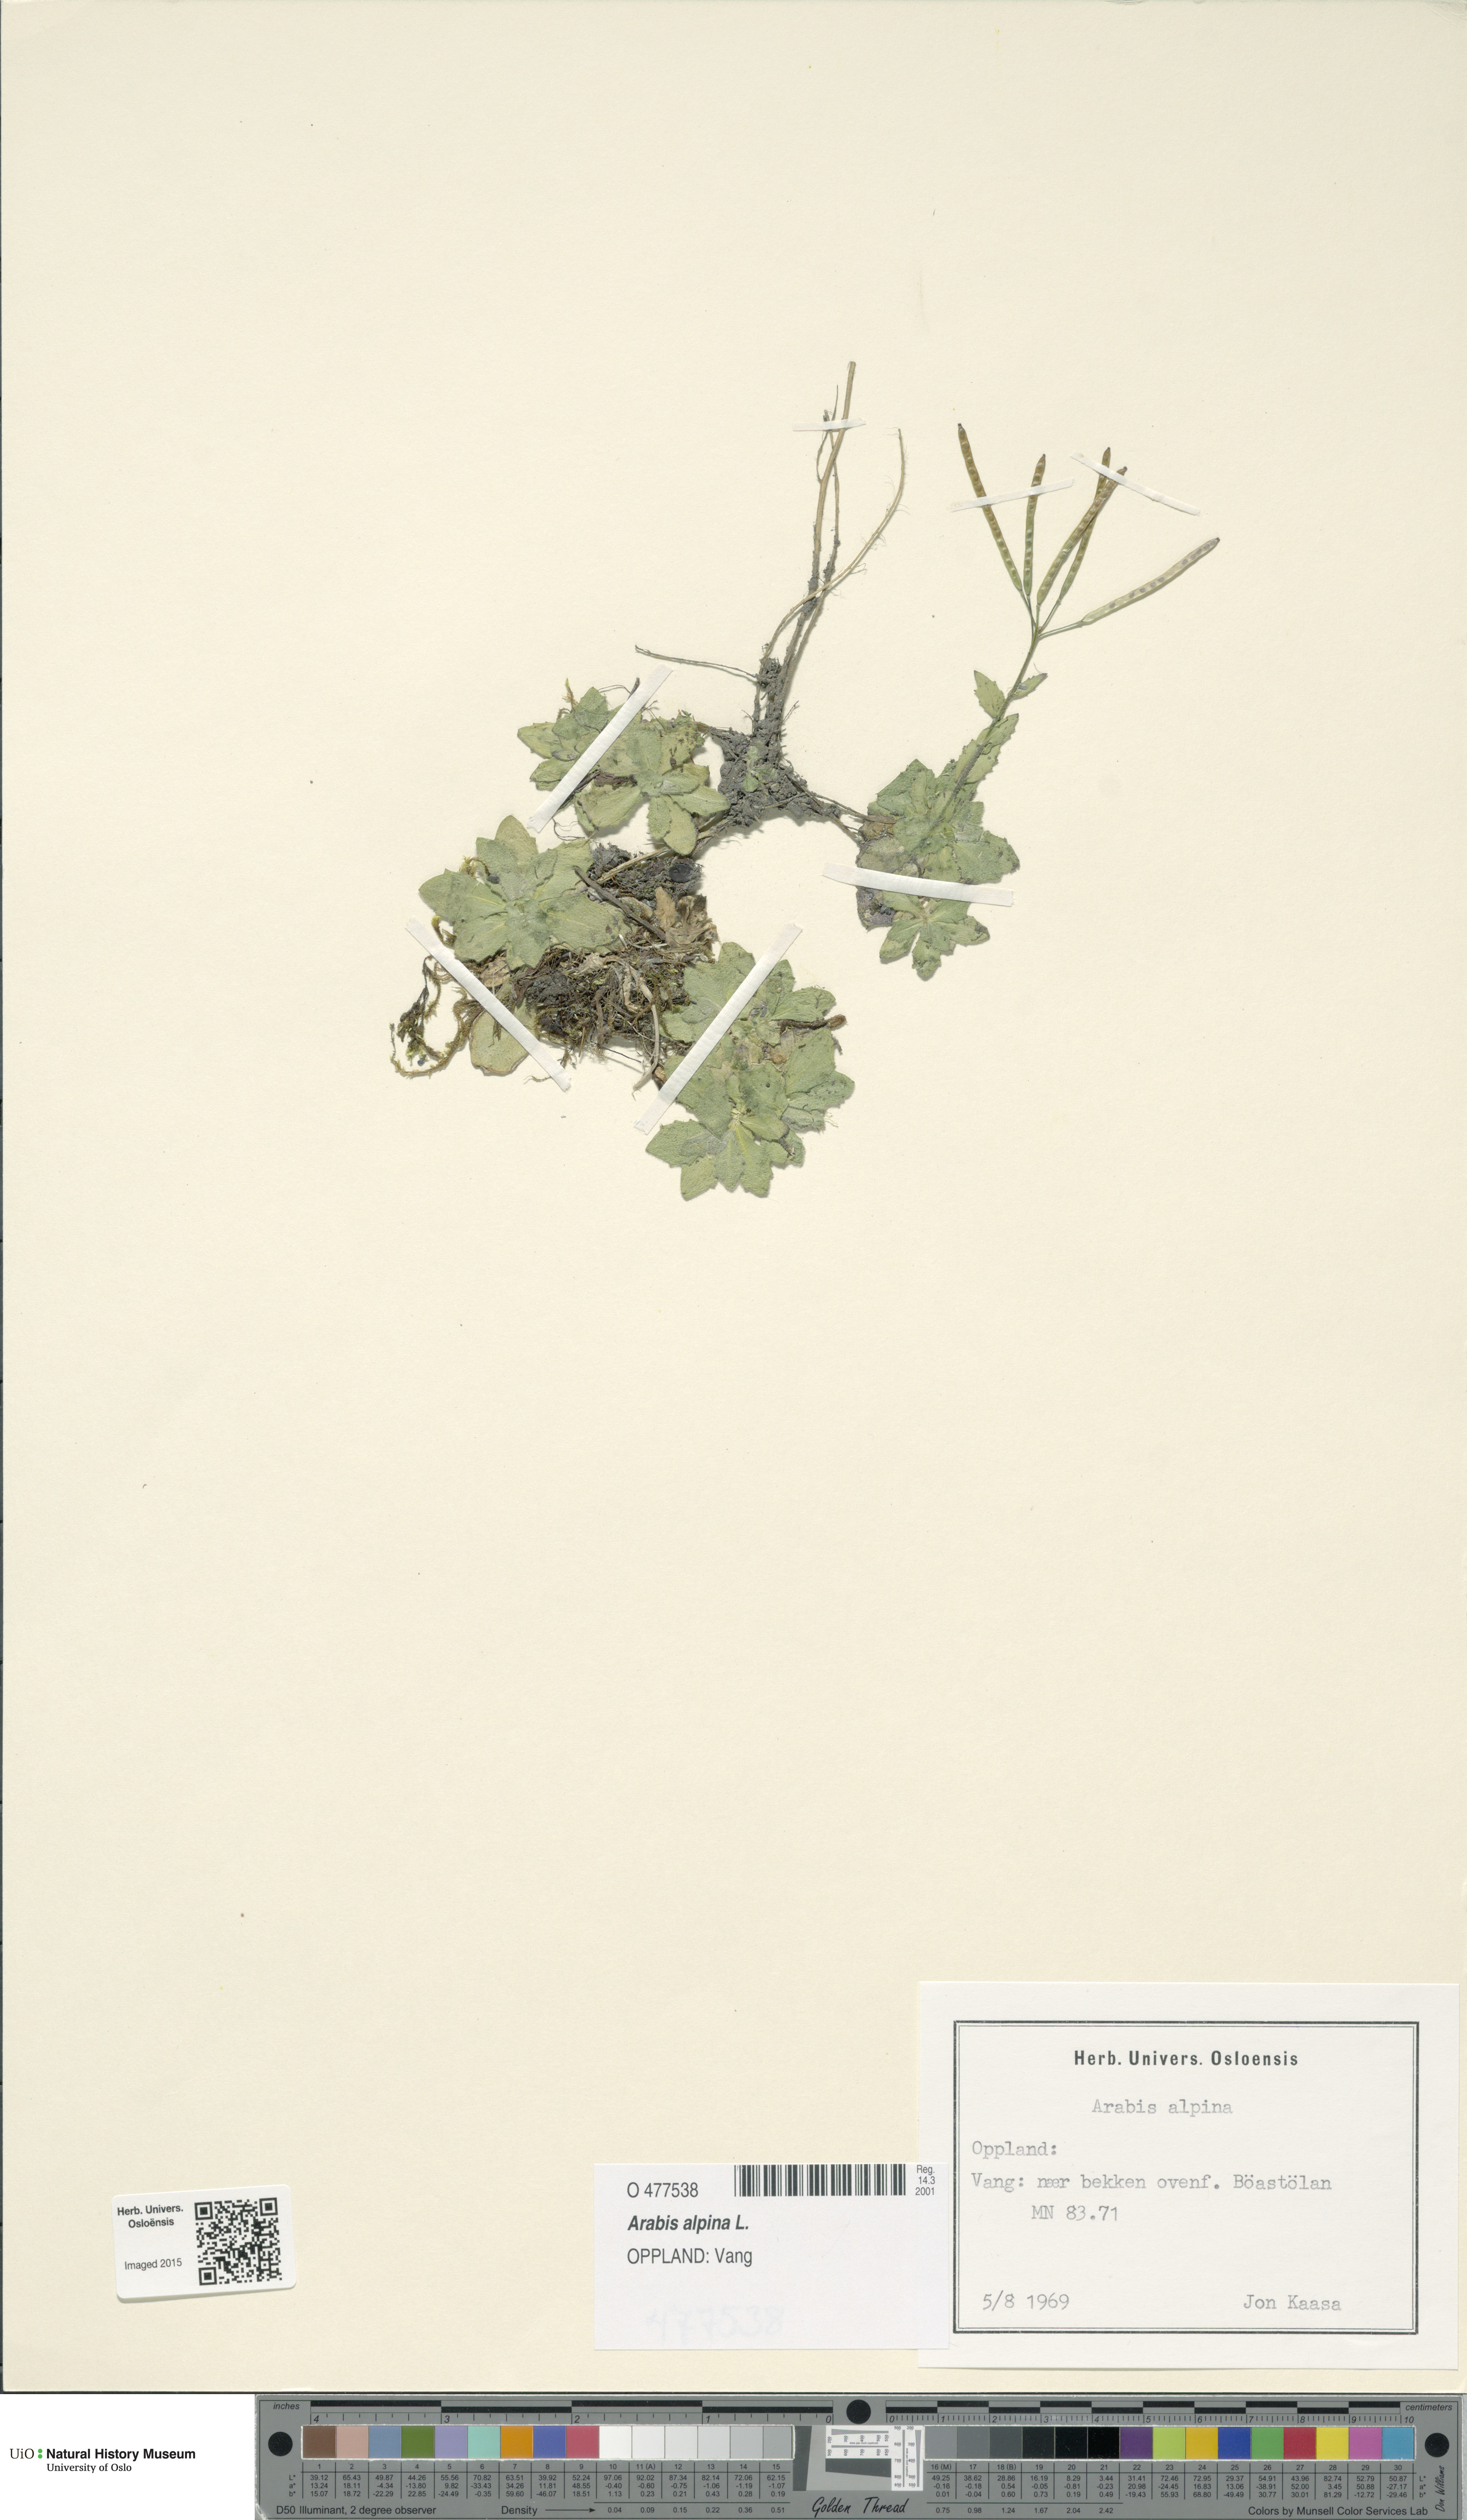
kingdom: Plantae
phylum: Tracheophyta
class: Magnoliopsida
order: Brassicales
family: Brassicaceae
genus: Arabis
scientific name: Arabis alpina
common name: Alpine rock-cress
